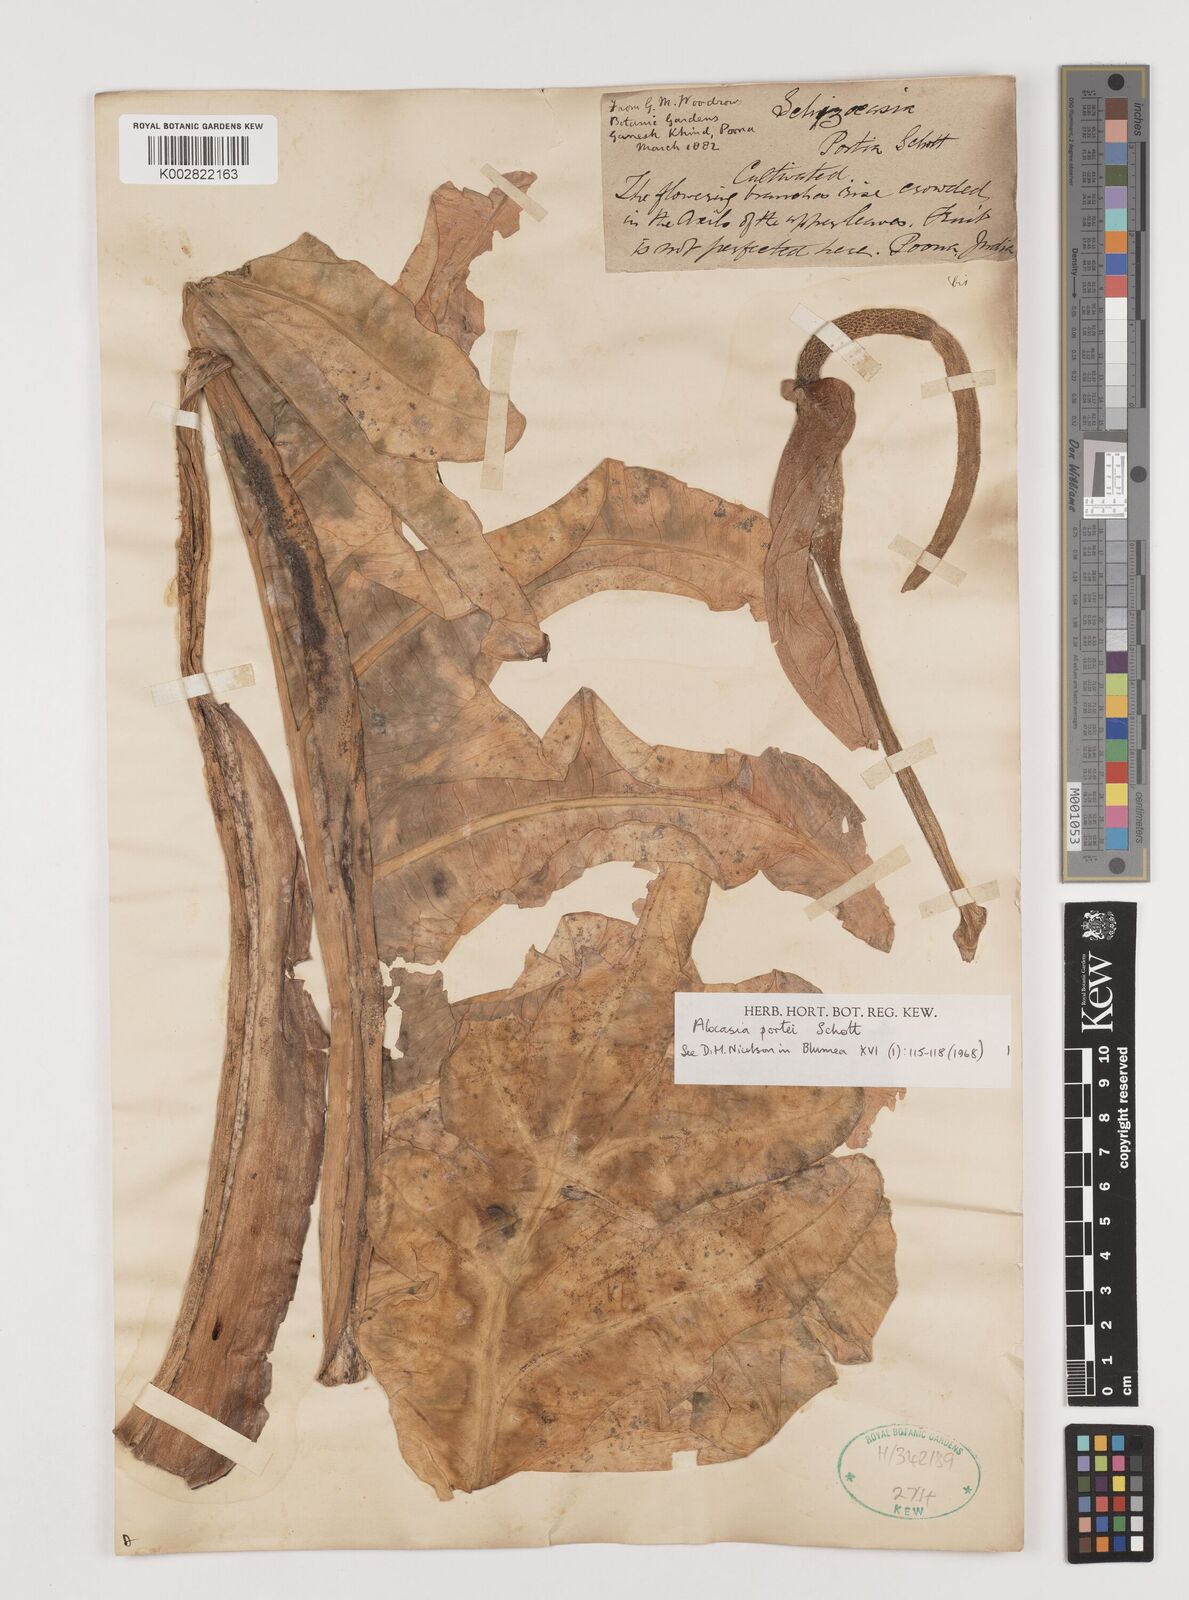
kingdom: Plantae
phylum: Tracheophyta
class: Liliopsida
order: Alismatales
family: Araceae
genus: Alocasia
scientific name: Alocasia portei
